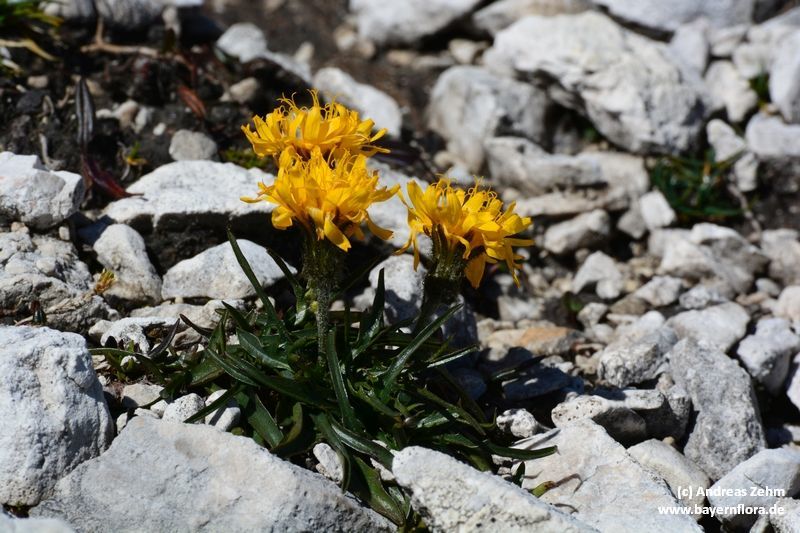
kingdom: Plantae
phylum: Tracheophyta
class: Magnoliopsida
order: Asterales
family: Asteraceae
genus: Crepis
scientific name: Crepis jacquinii
